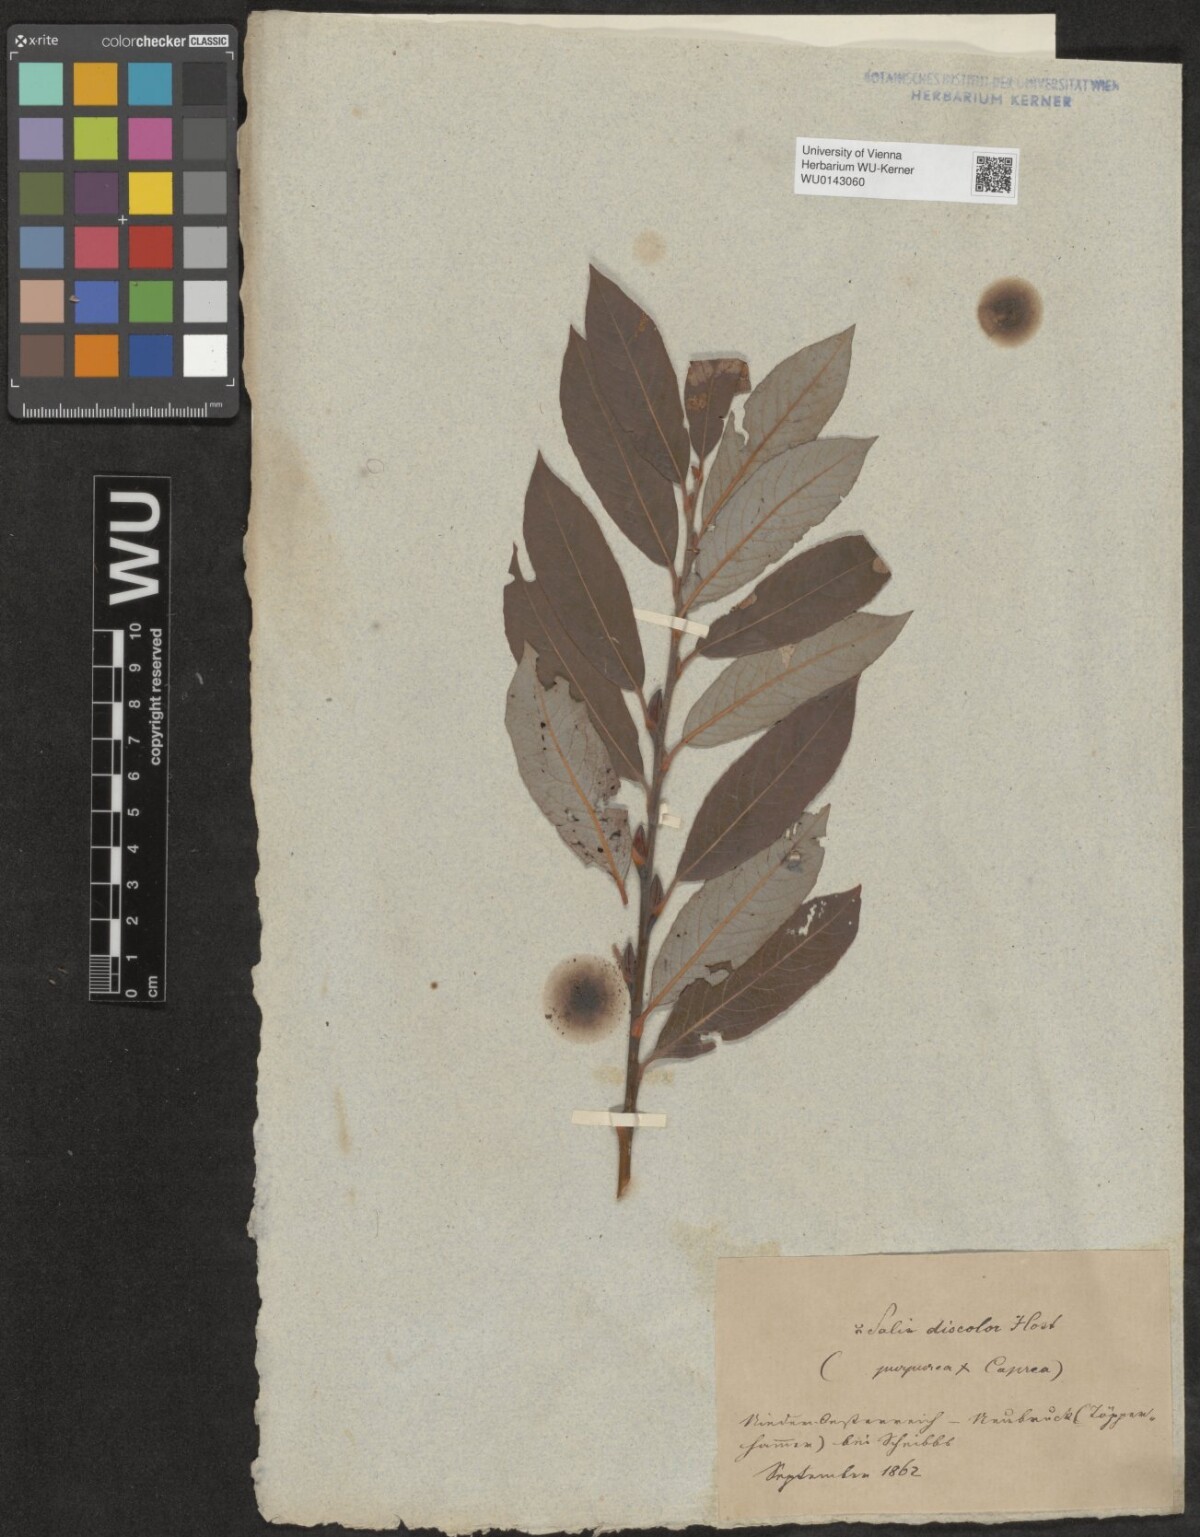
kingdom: Plantae
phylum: Tracheophyta
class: Magnoliopsida
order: Malpighiales
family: Salicaceae
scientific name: Salicaceae
